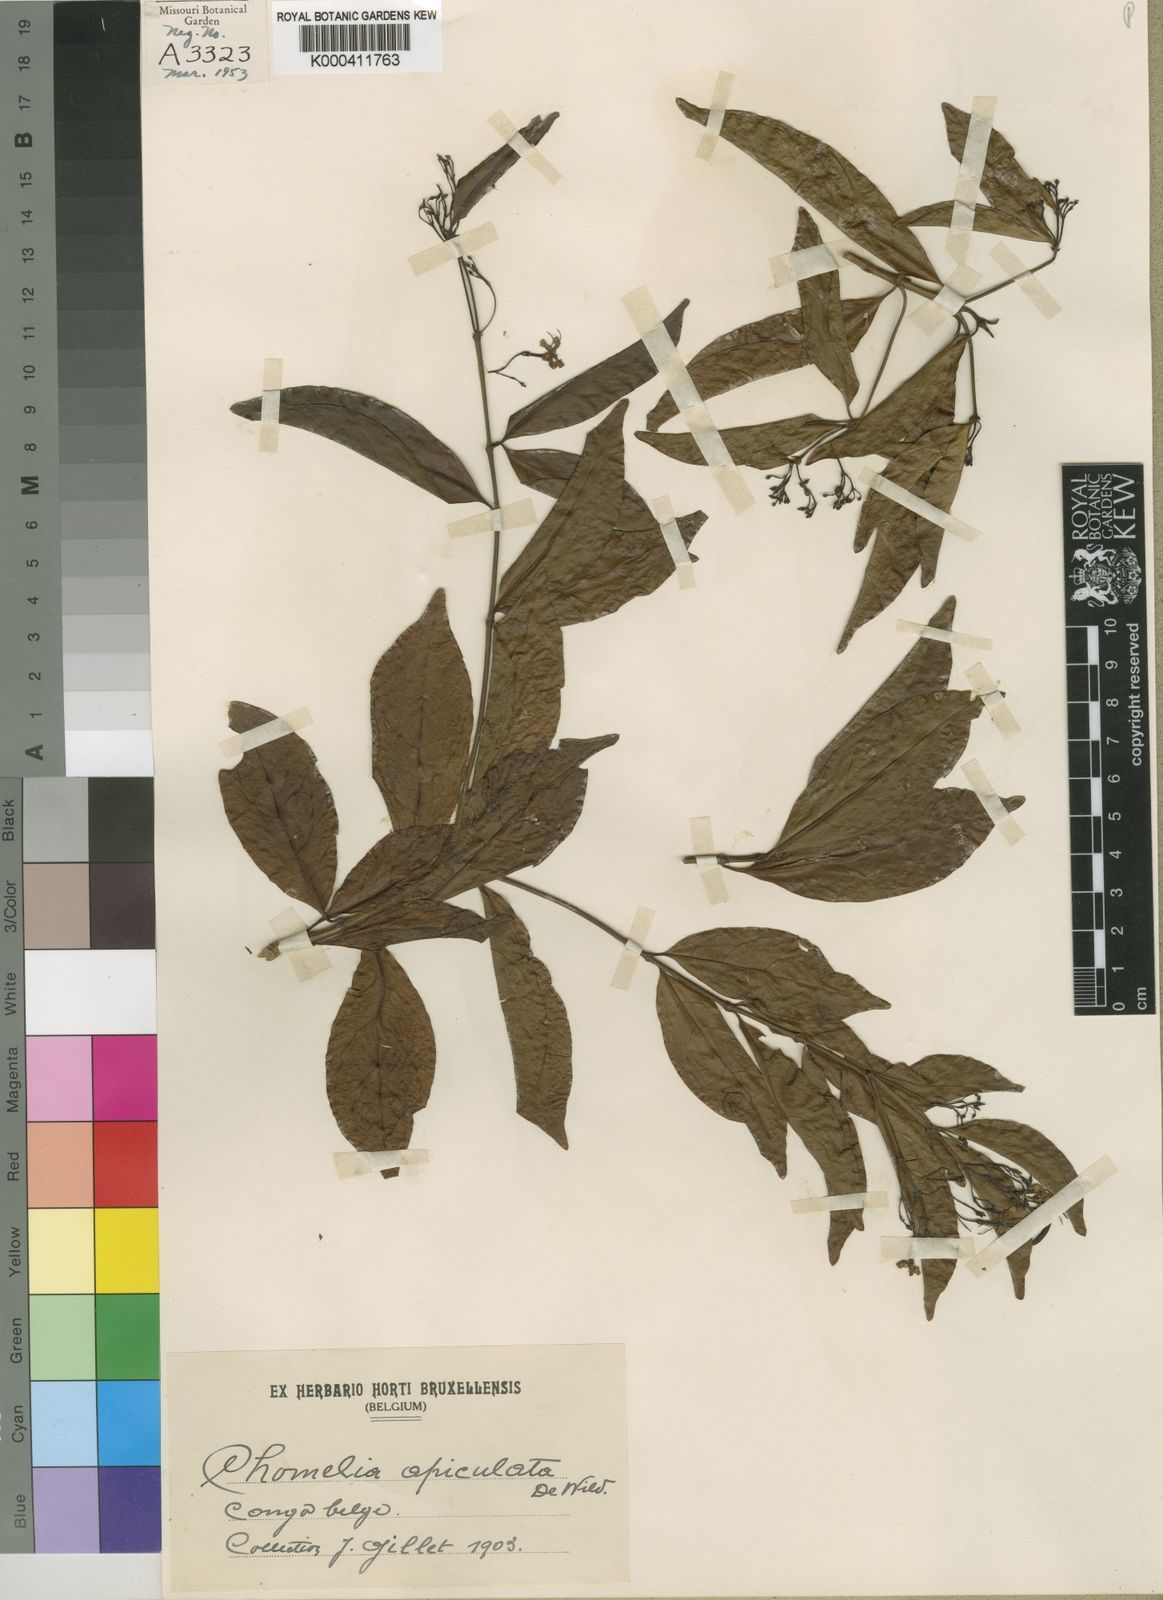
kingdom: Plantae
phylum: Tracheophyta
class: Magnoliopsida
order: Gentianales
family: Rubiaceae
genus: Tarenna
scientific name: Tarenna congensis
